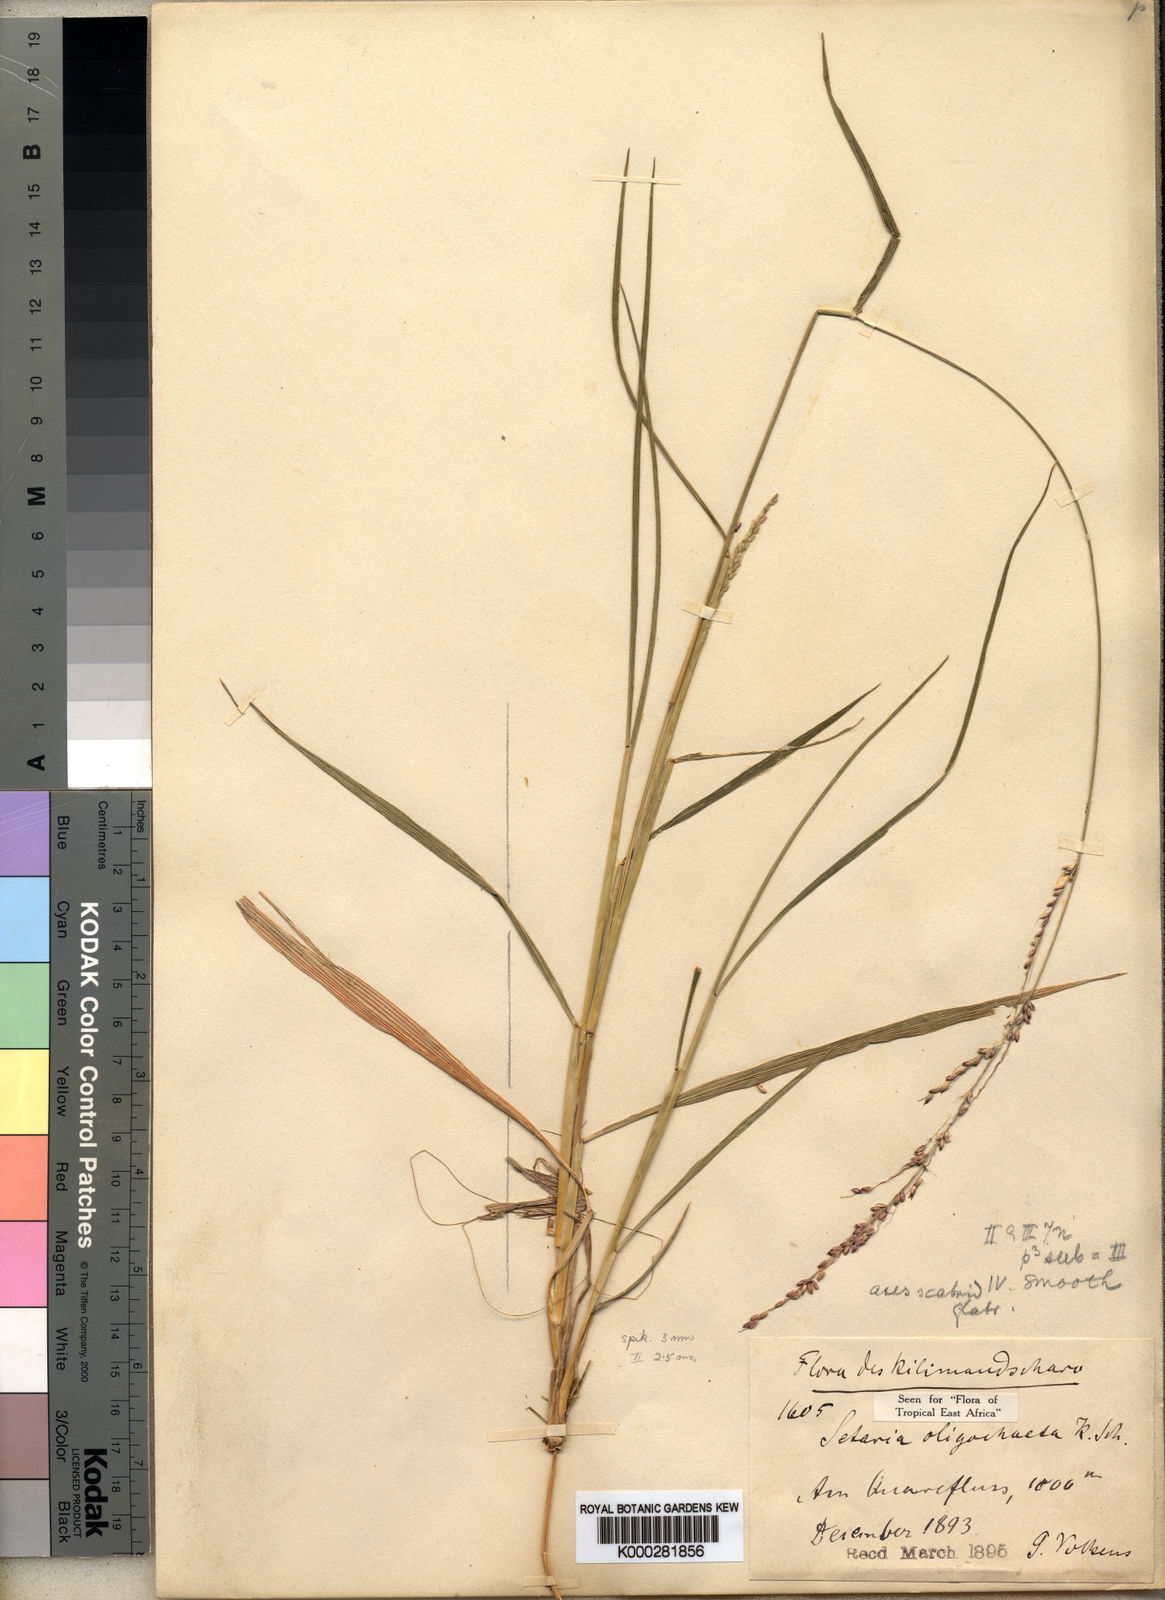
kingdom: Plantae
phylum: Tracheophyta
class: Liliopsida
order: Poales
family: Poaceae
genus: Setaria
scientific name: Setaria megaphylla
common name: Bigleaf bristlegrass
